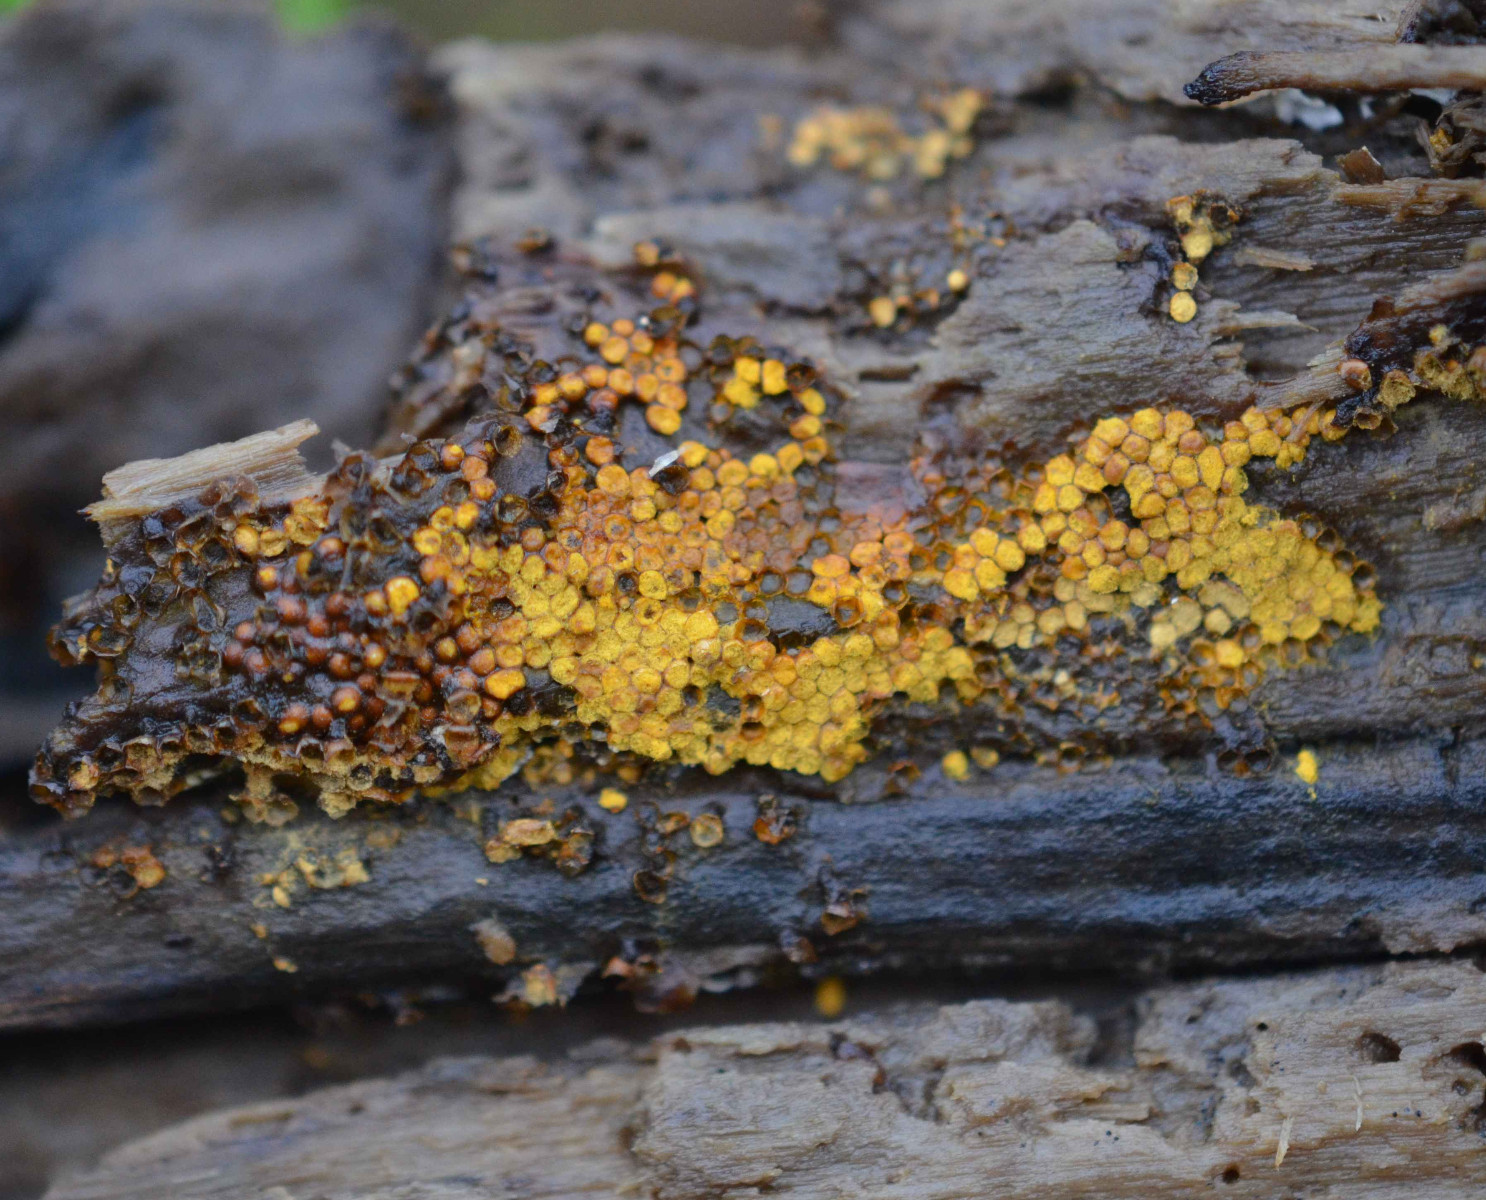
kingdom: Protozoa
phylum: Mycetozoa
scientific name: Mycetozoa
